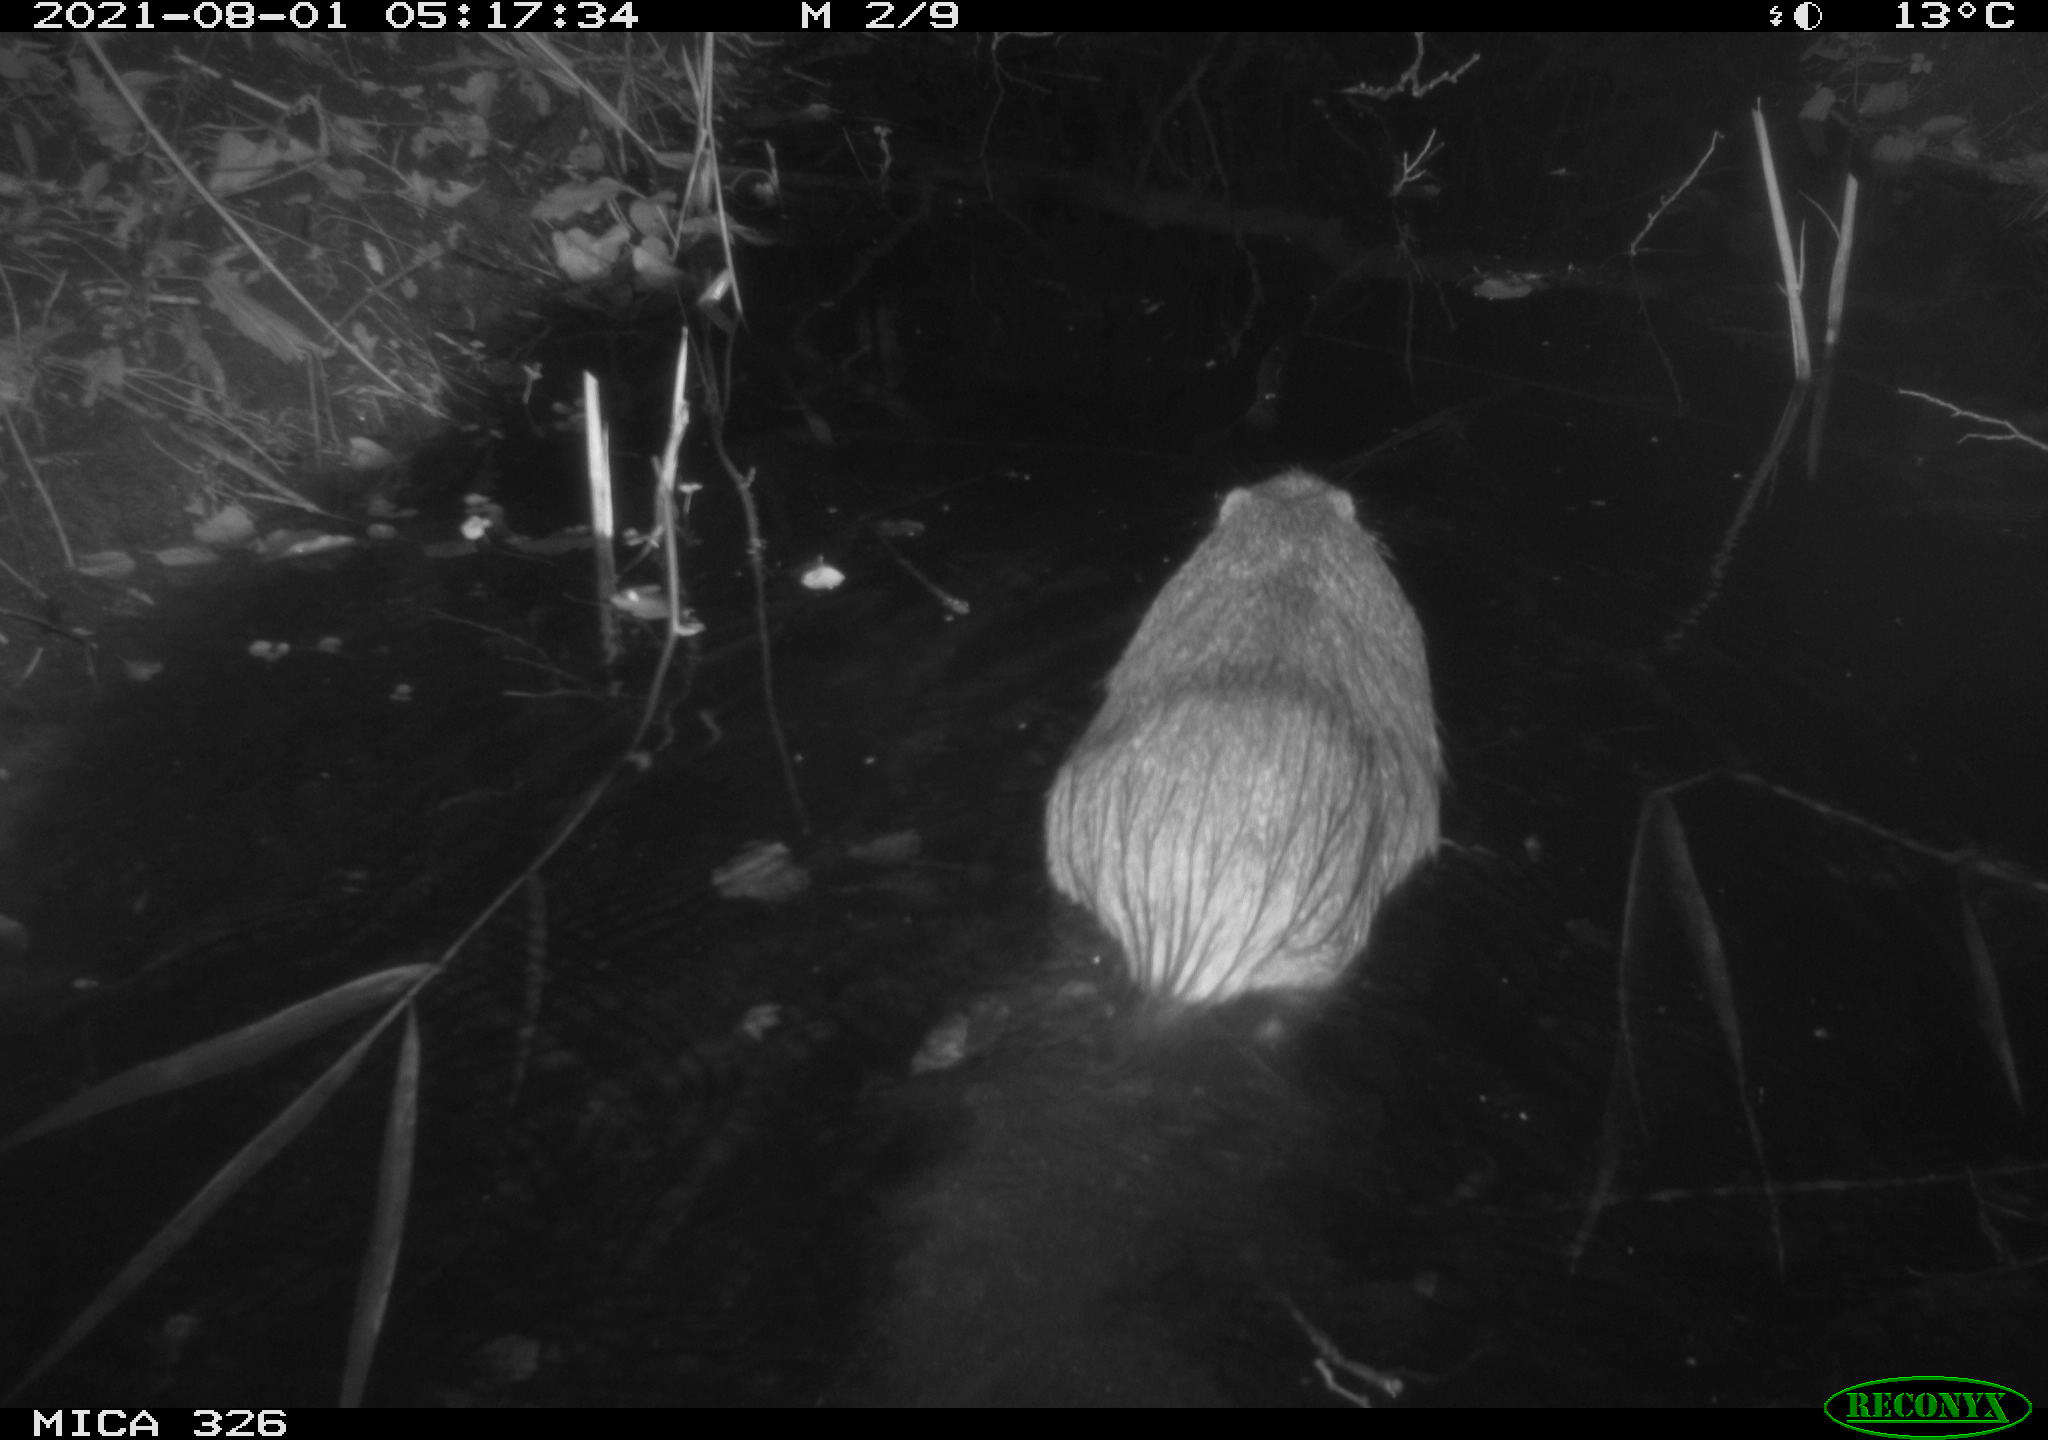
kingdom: Animalia
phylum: Chordata
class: Mammalia
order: Rodentia
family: Myocastoridae
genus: Myocastor
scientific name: Myocastor coypus
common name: Coypu
